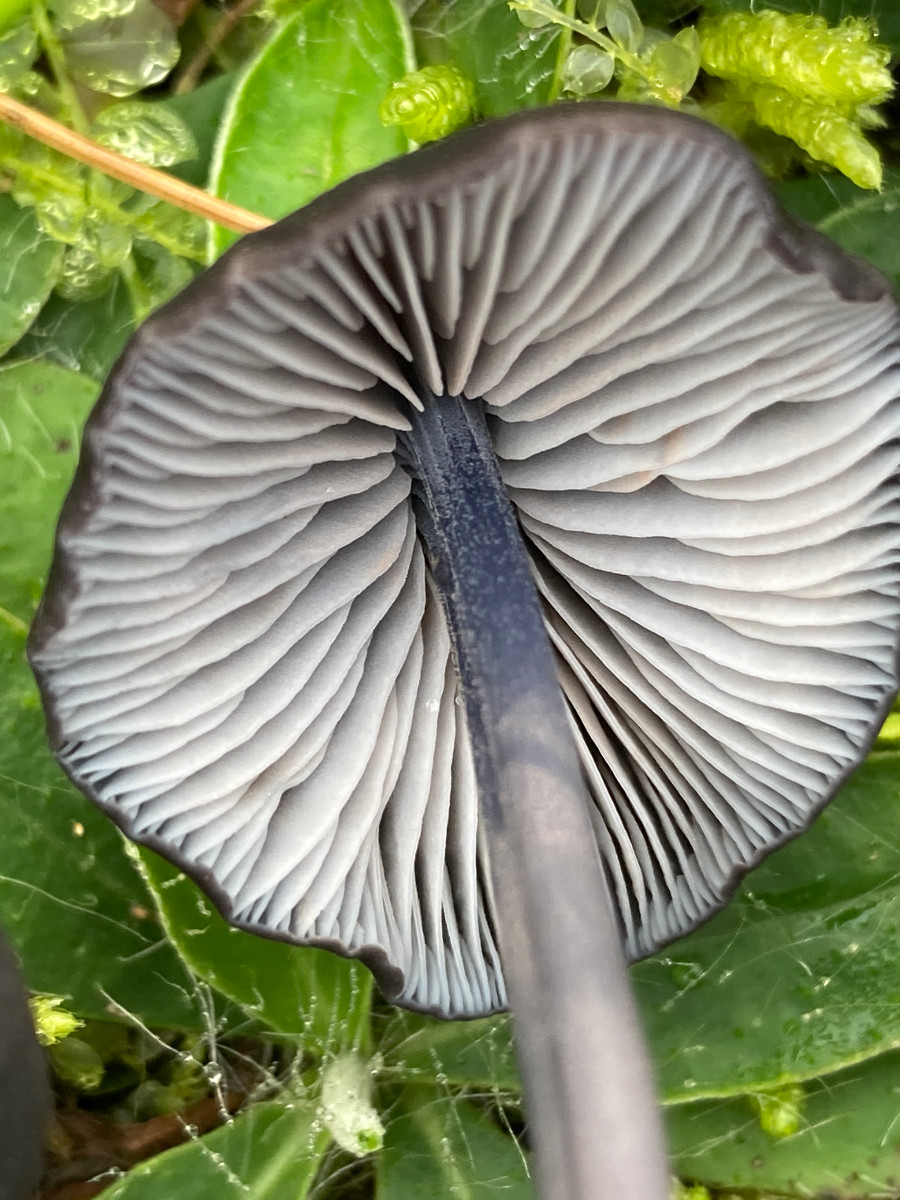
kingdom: Fungi
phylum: Basidiomycota
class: Agaricomycetes
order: Agaricales
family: Entolomataceae
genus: Entoloma
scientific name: Entoloma chalybeum
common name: blåbladet rødblad
